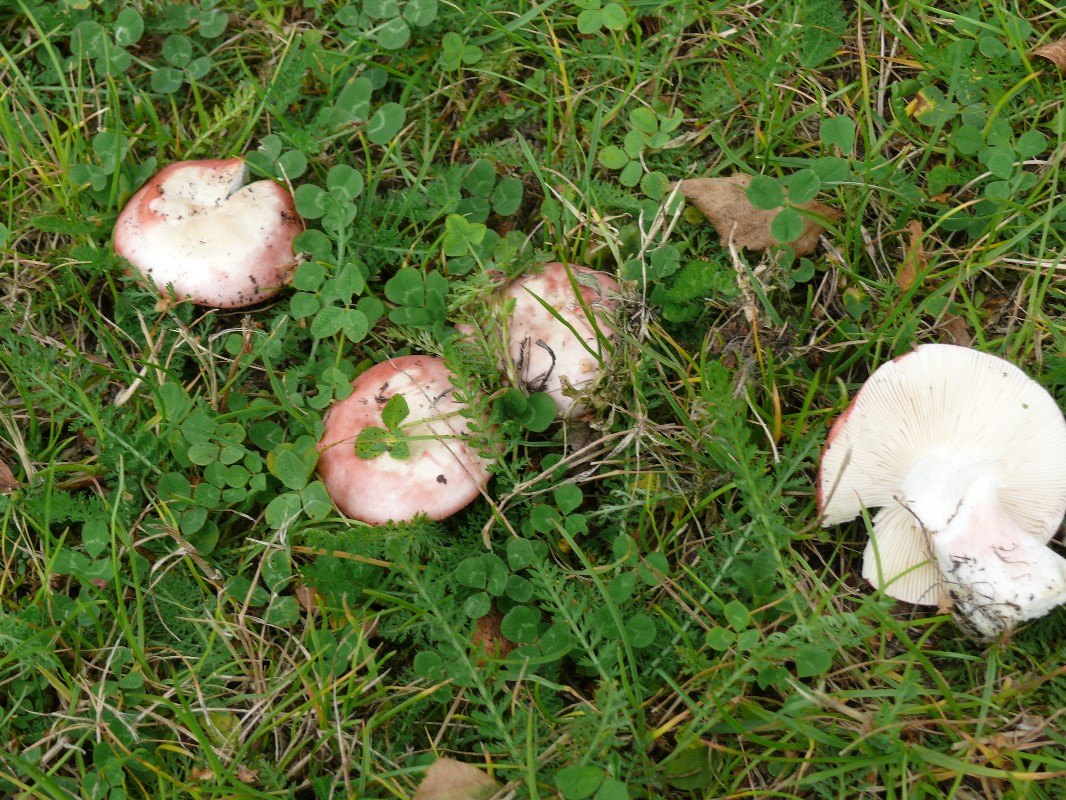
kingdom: Fungi
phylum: Basidiomycota
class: Agaricomycetes
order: Russulales
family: Russulaceae
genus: Russula
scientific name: Russula depallens
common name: falmende skørhat
